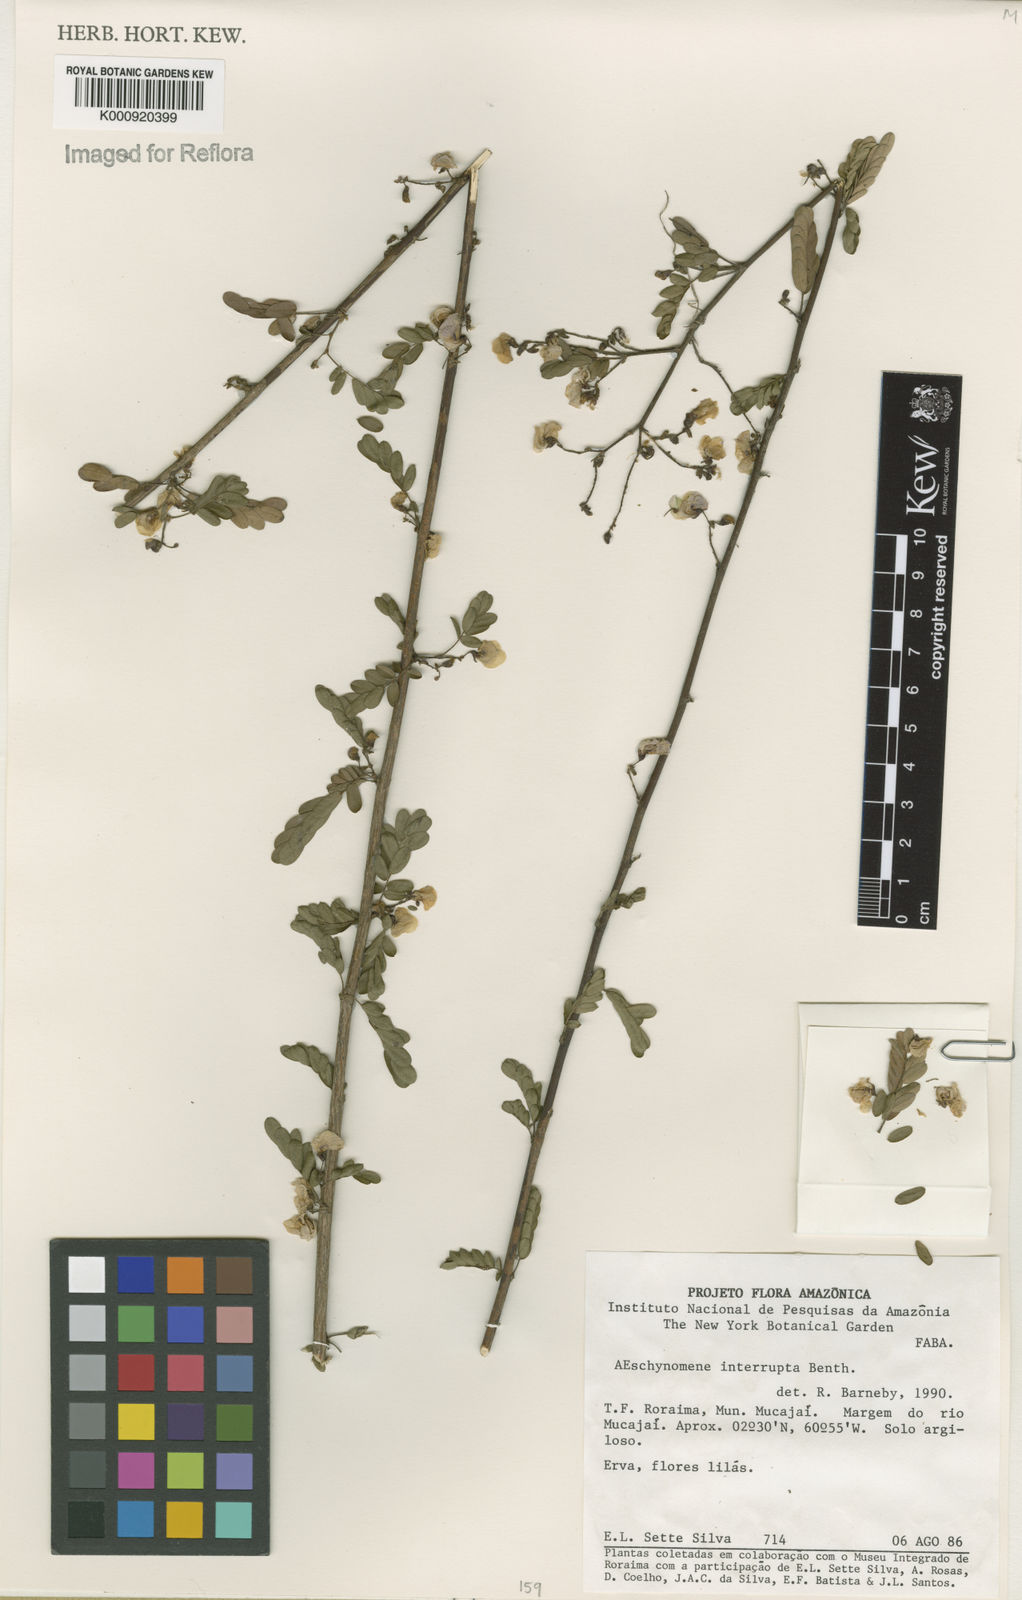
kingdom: Plantae
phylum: Tracheophyta
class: Magnoliopsida
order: Fabales
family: Fabaceae
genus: Ctenodon
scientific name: Ctenodon interruptus
